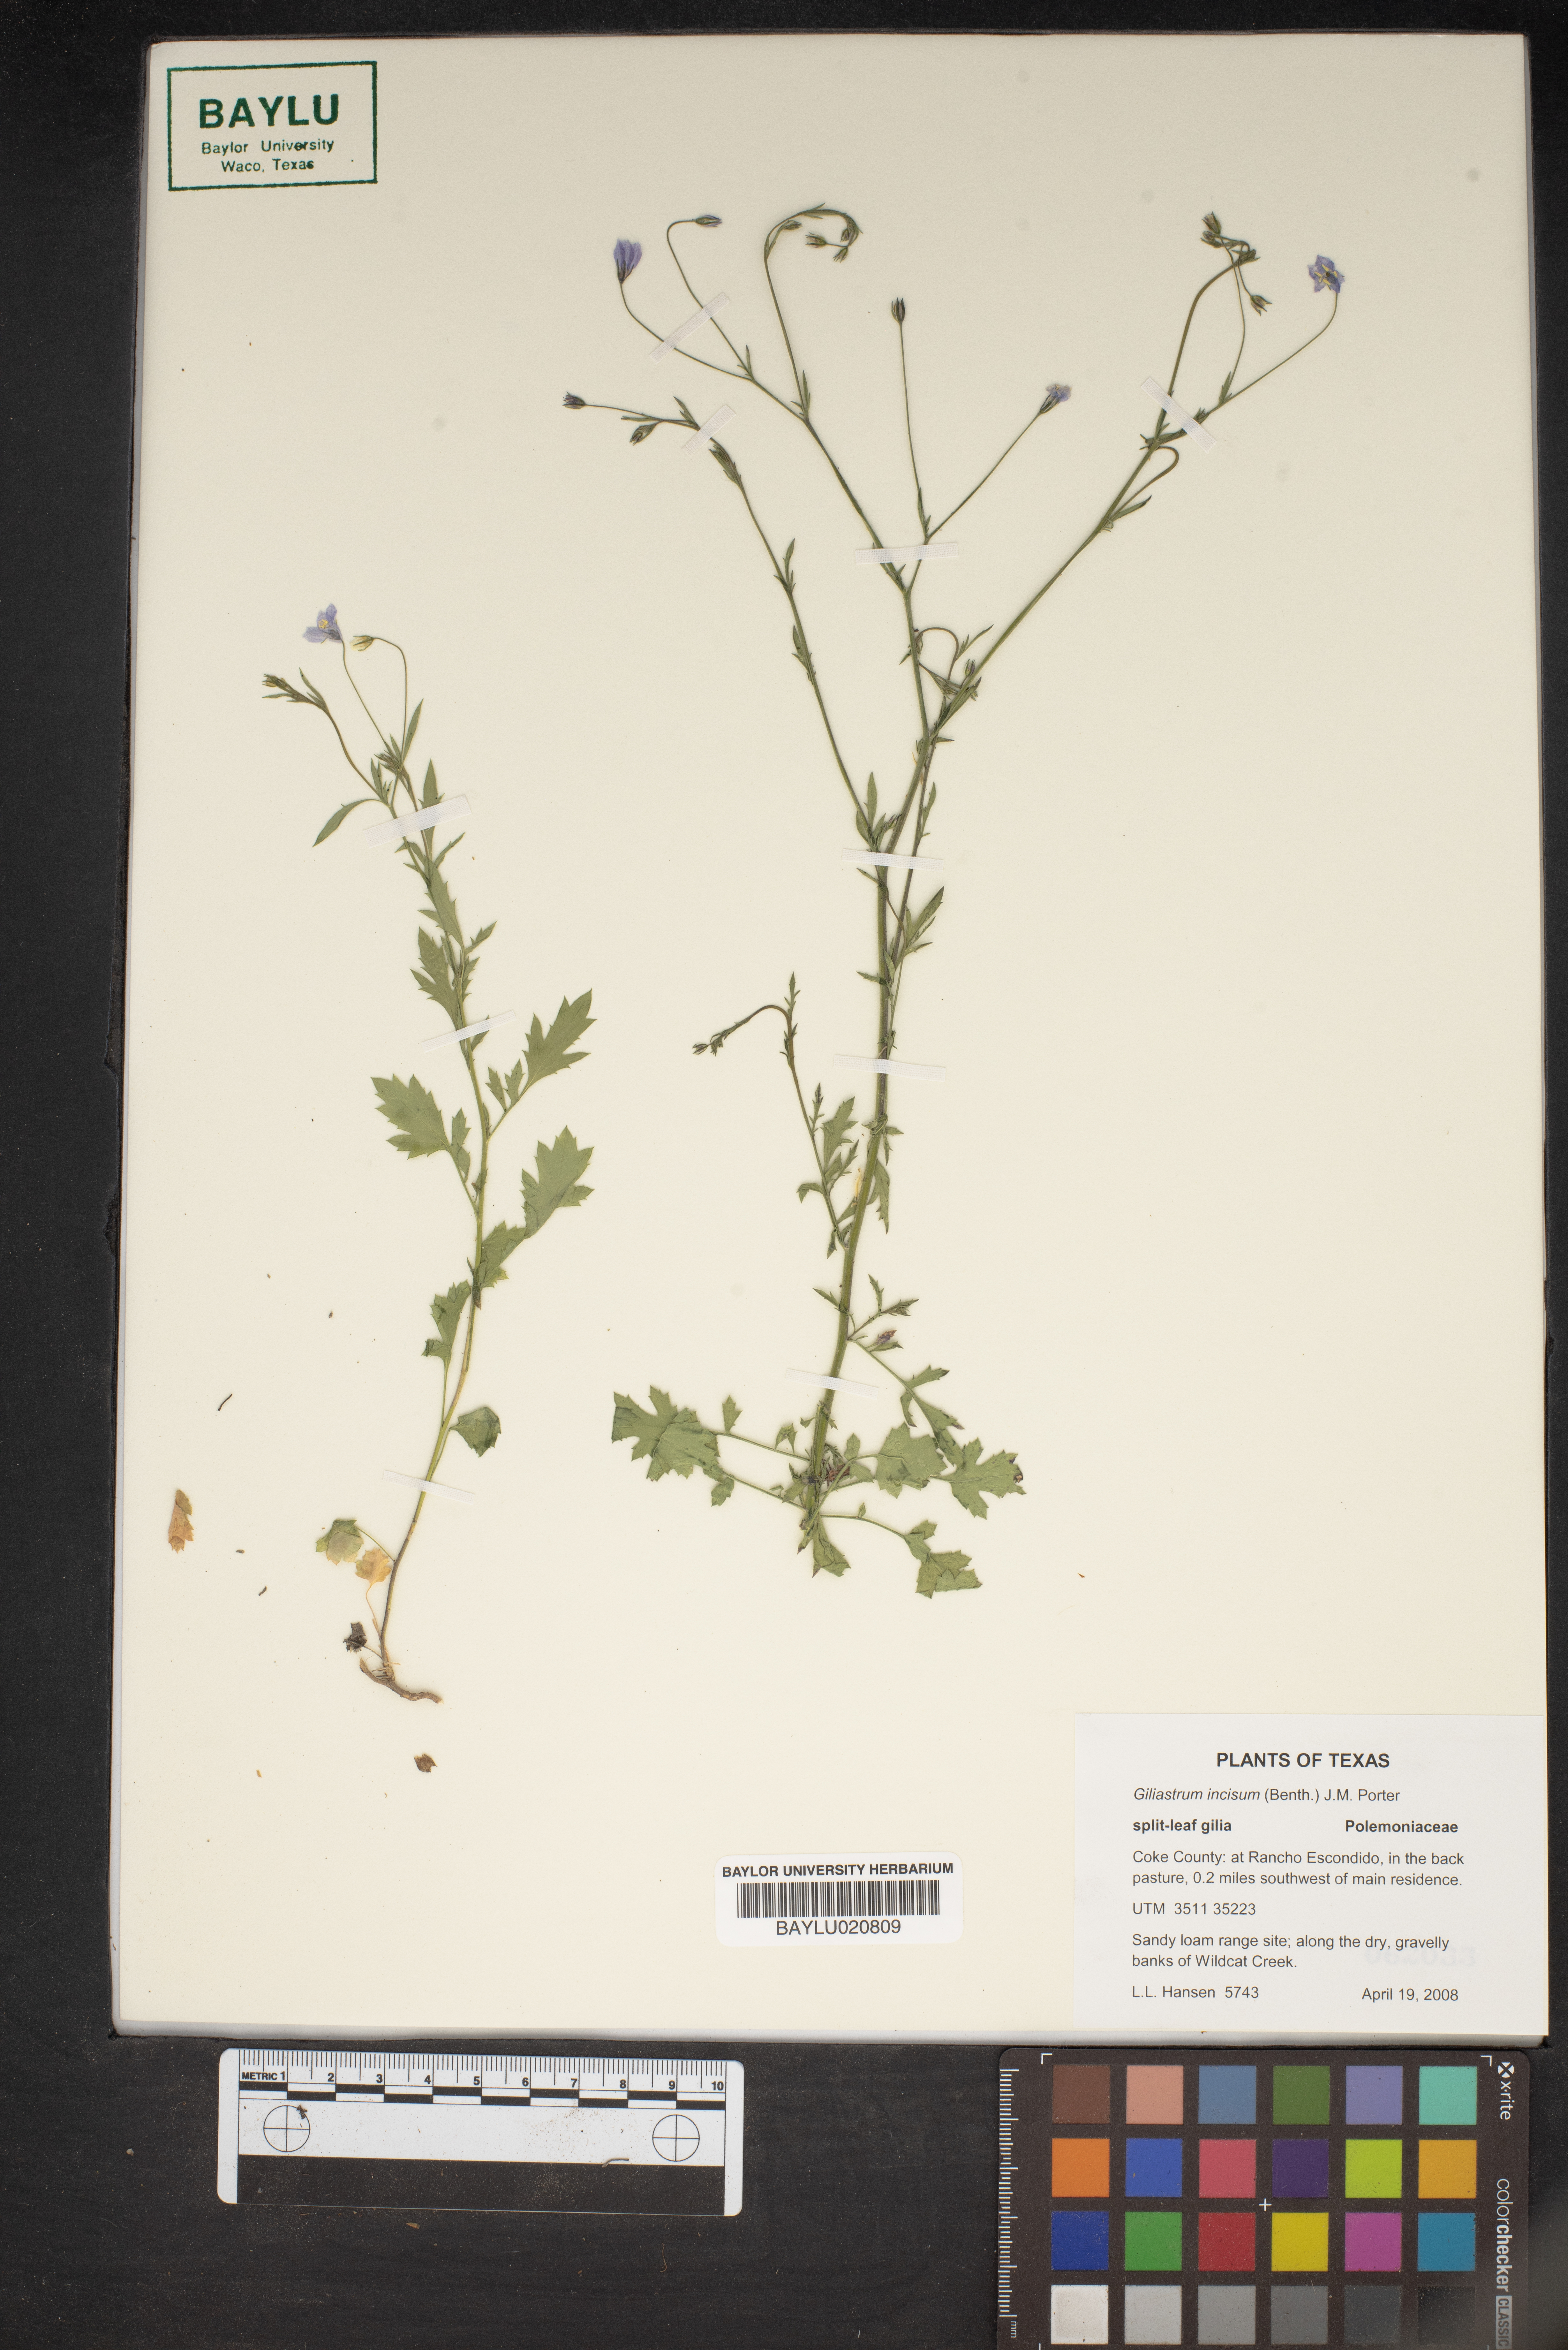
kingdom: Plantae
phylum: Tracheophyta
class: Magnoliopsida
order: Ericales
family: Polemoniaceae
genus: Giliastrum
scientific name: Giliastrum incisum
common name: Splitleaf gilia
